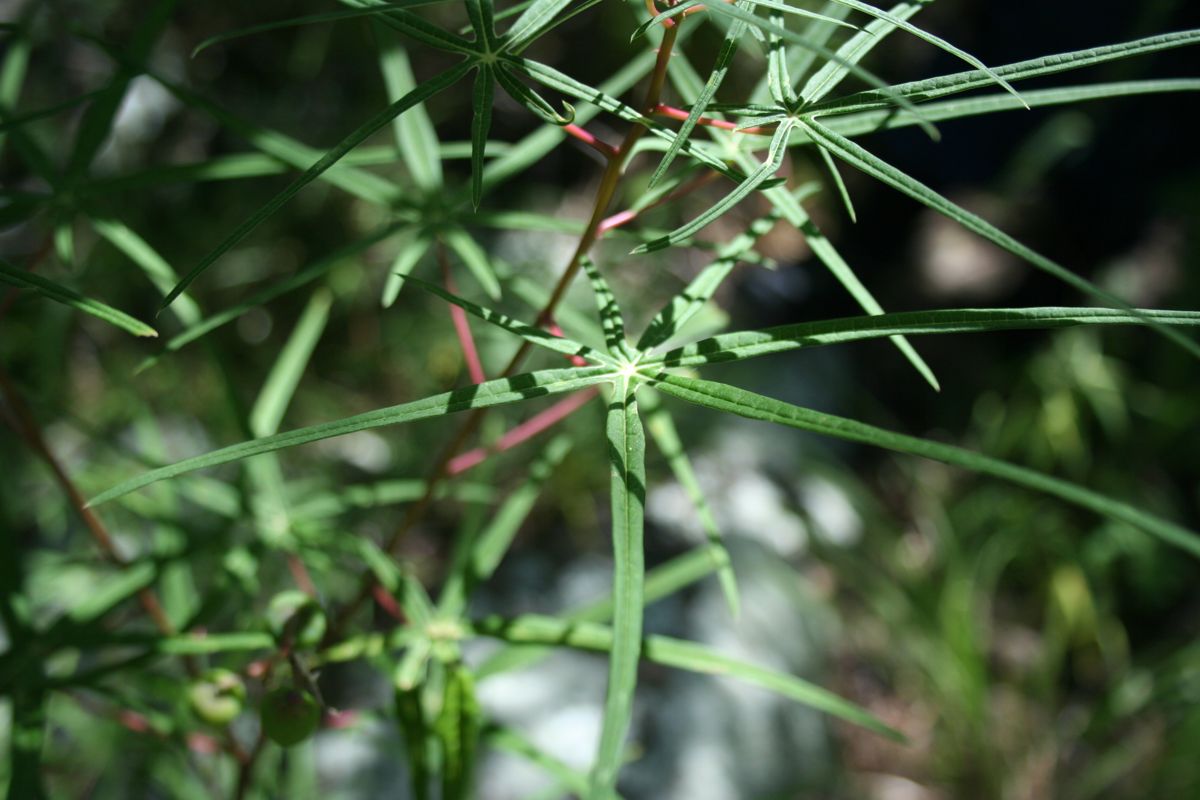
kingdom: Plantae
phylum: Tracheophyta
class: Magnoliopsida
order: Malpighiales
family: Euphorbiaceae
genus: Manihot
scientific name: Manihot rhomboidea
